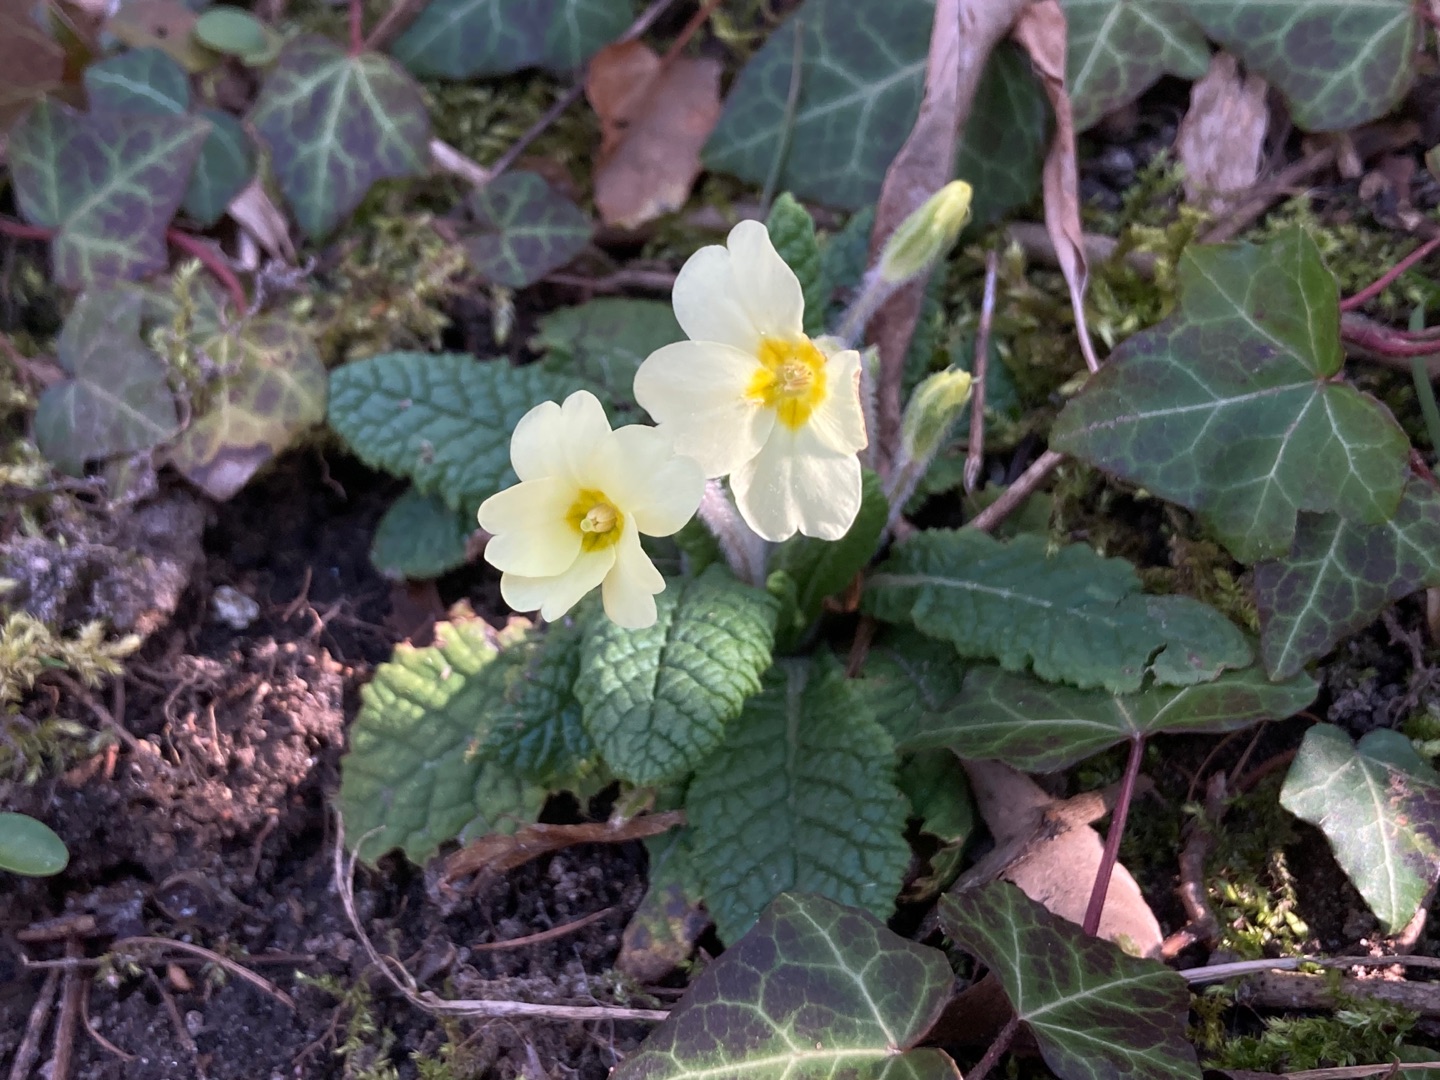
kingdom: Plantae
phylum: Tracheophyta
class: Magnoliopsida
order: Ericales
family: Primulaceae
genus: Primula
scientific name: Primula vulgaris
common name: Storblomstret kodriver
